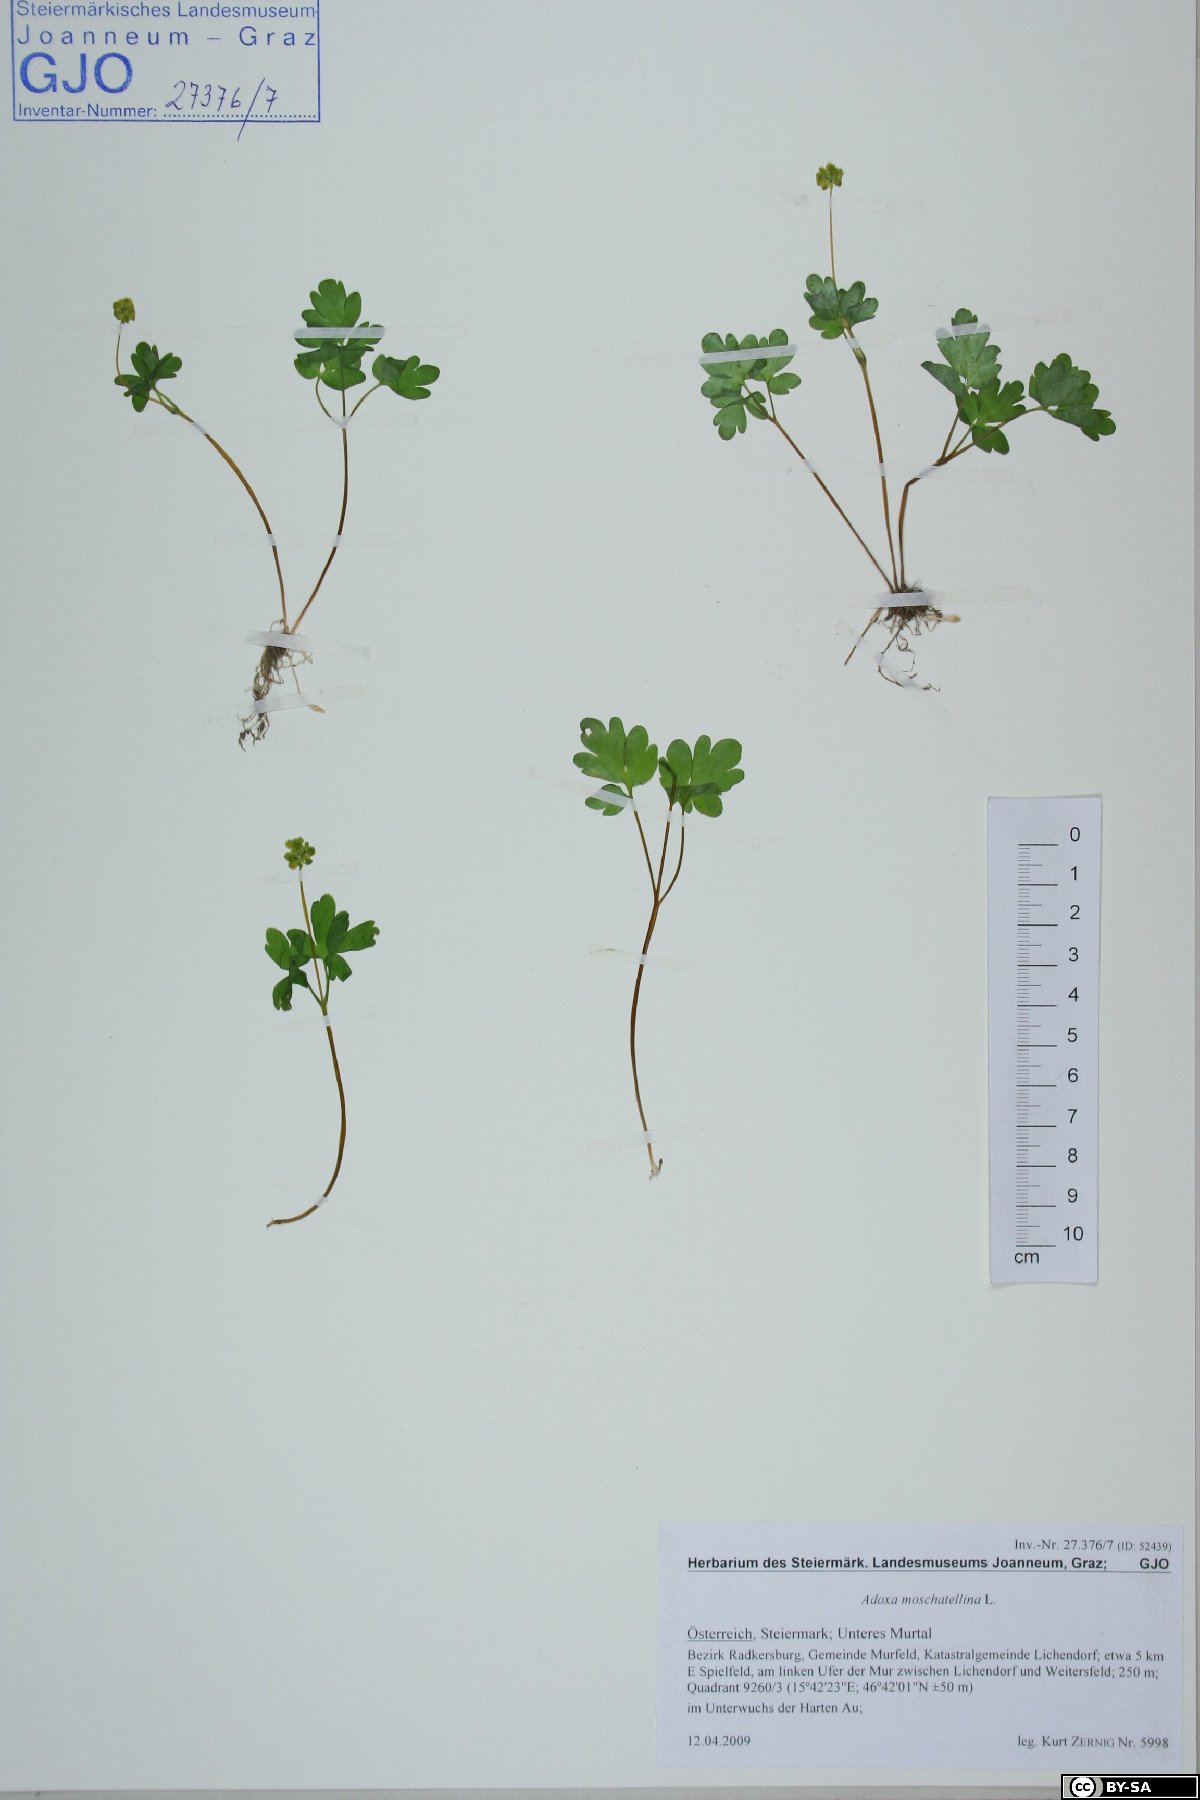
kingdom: Plantae
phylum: Tracheophyta
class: Magnoliopsida
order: Dipsacales
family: Viburnaceae
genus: Adoxa
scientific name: Adoxa moschatellina
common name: Moschatel
